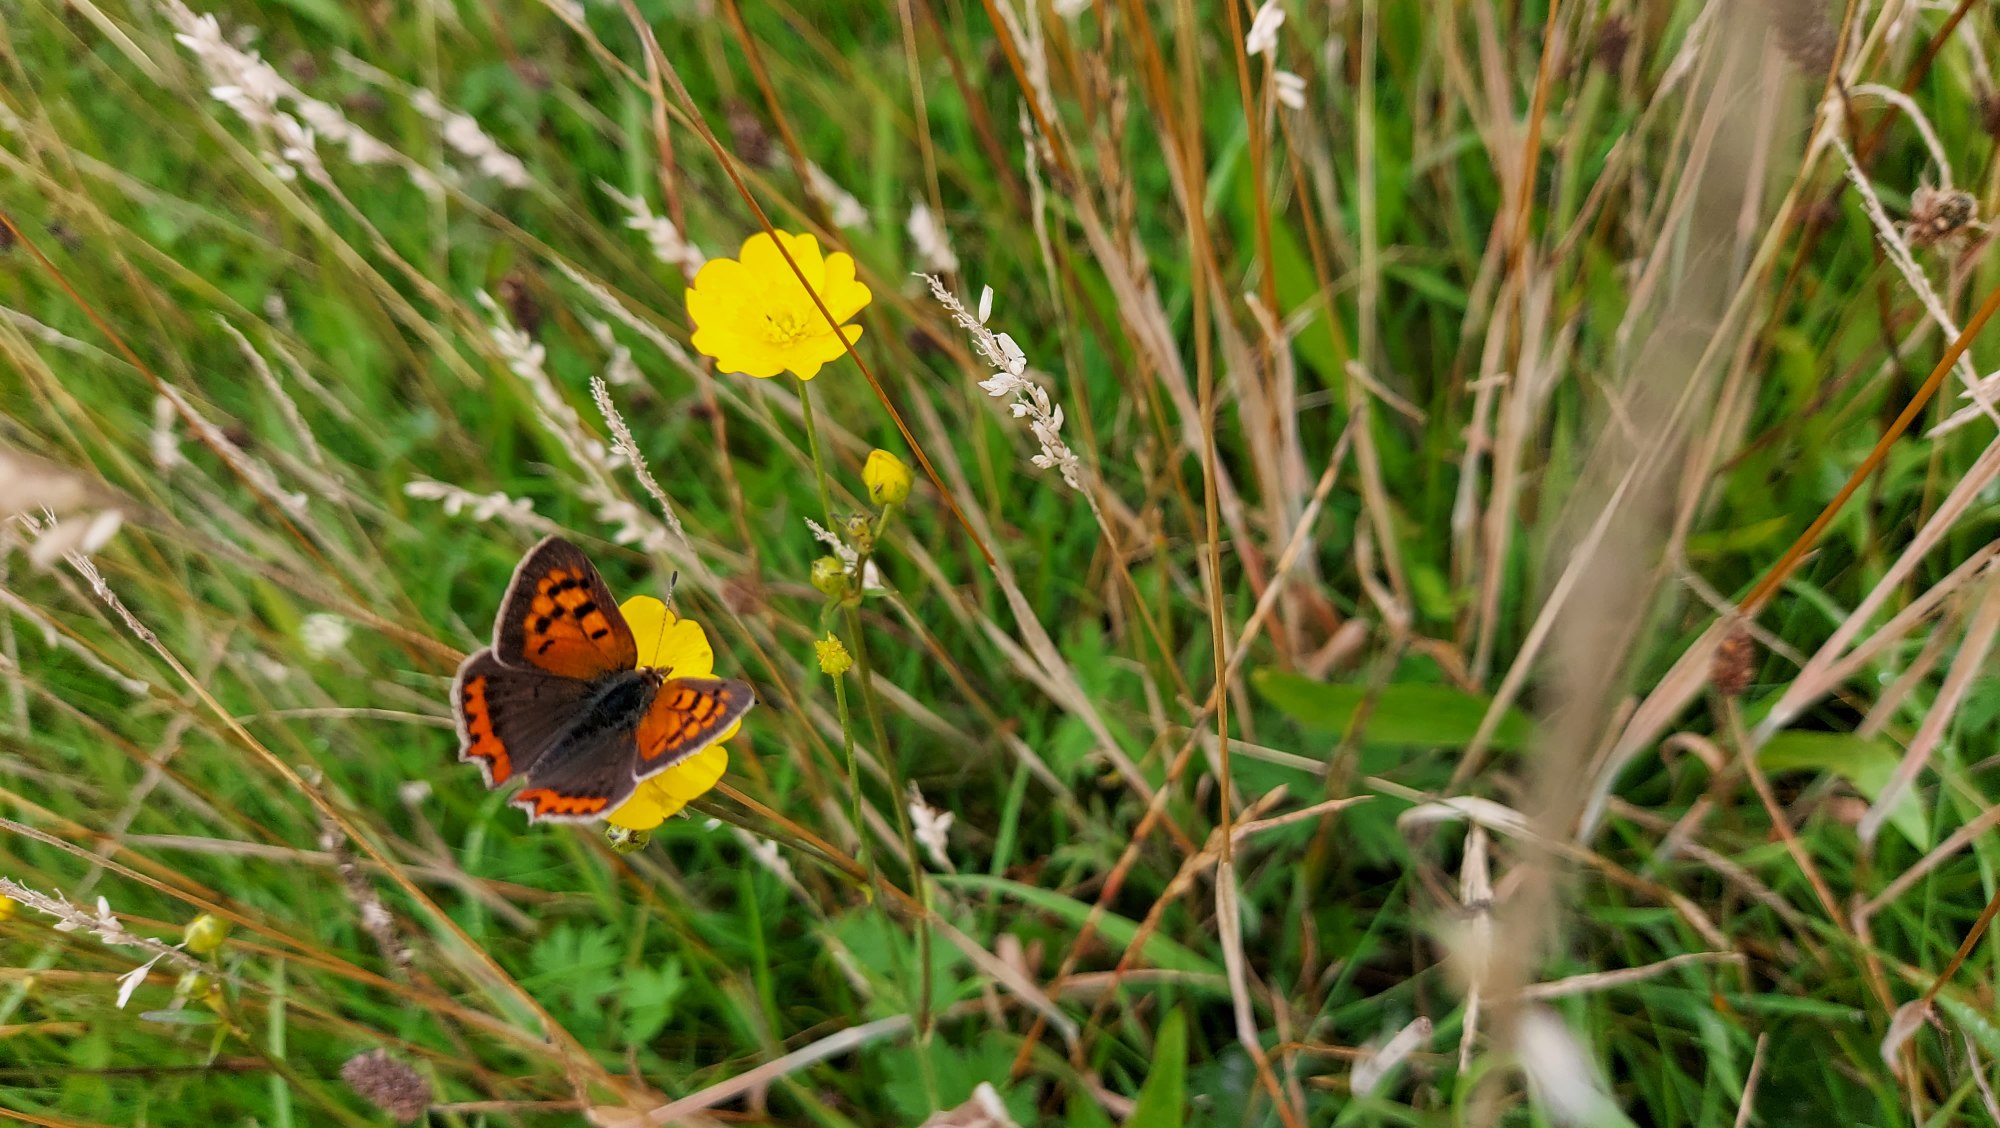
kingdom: Animalia
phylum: Arthropoda
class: Insecta
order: Lepidoptera
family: Lycaenidae
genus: Lycaena
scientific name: Lycaena phlaeas
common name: Lille ildfugl
